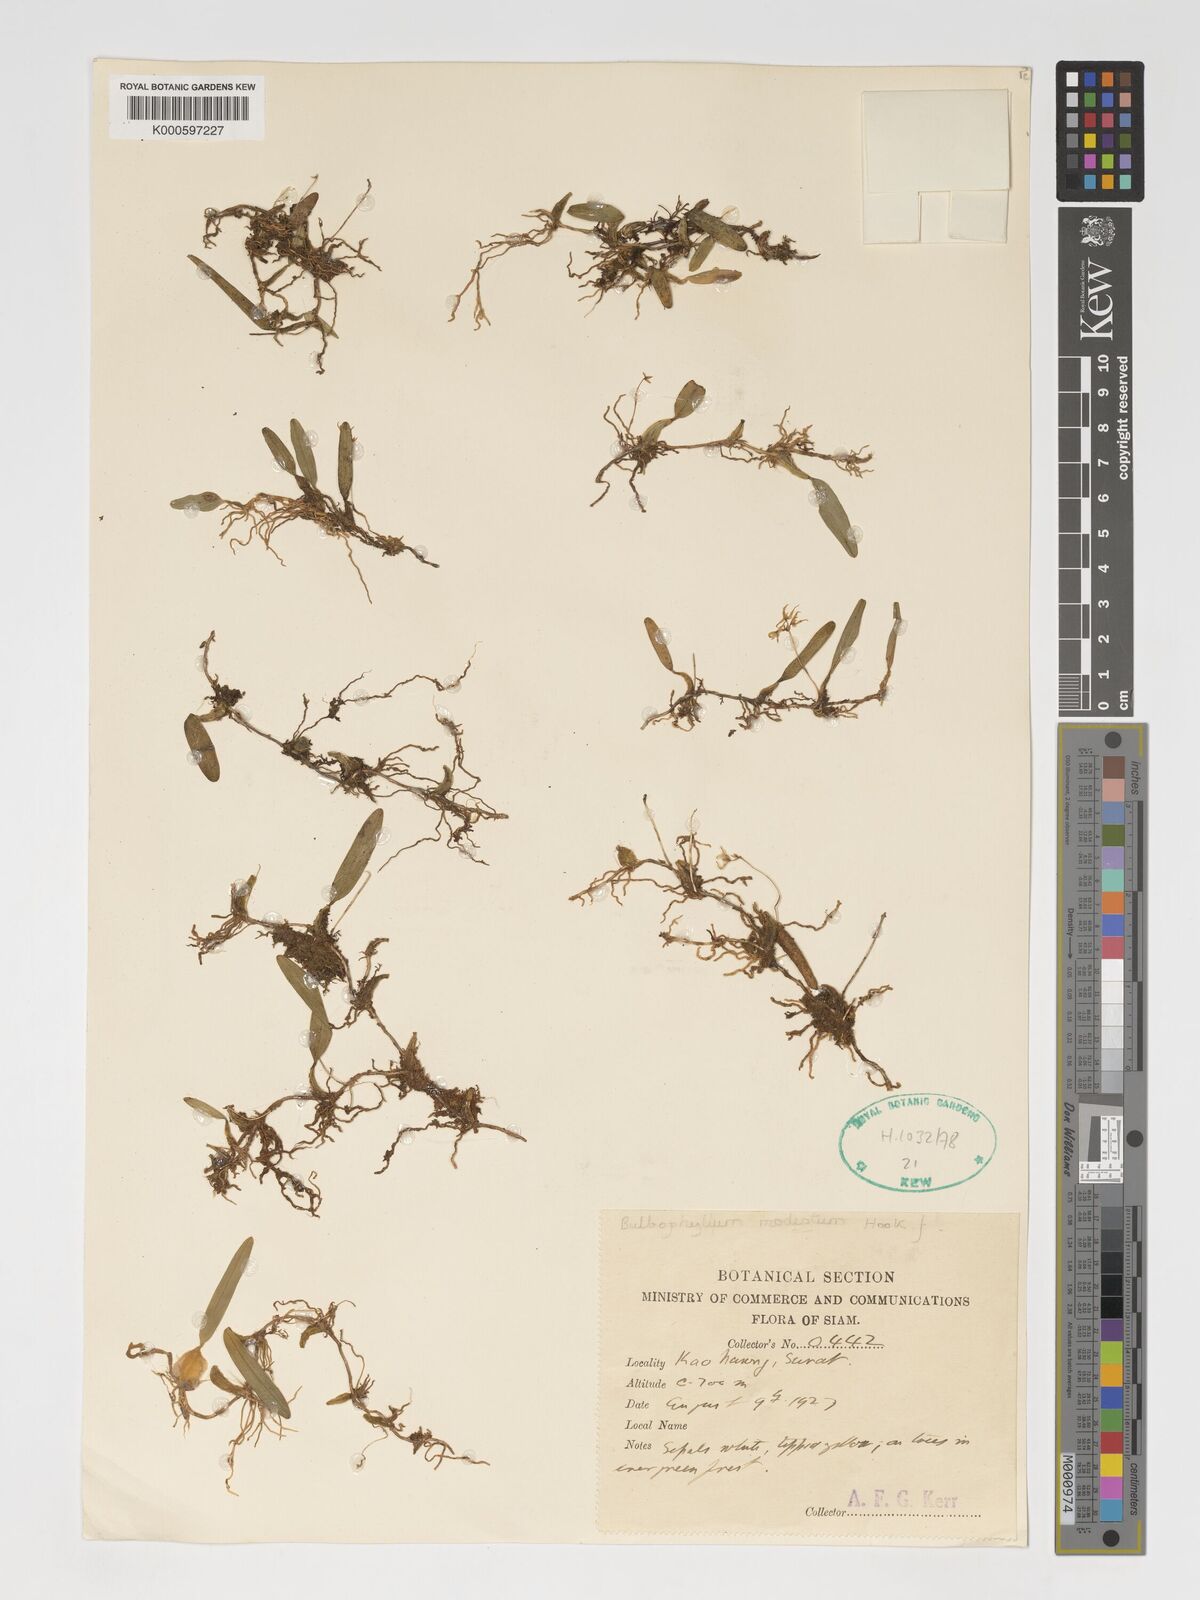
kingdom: Plantae
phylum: Tracheophyta
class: Liliopsida
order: Asparagales
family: Orchidaceae
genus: Bulbophyllum
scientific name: Bulbophyllum sulcatum
